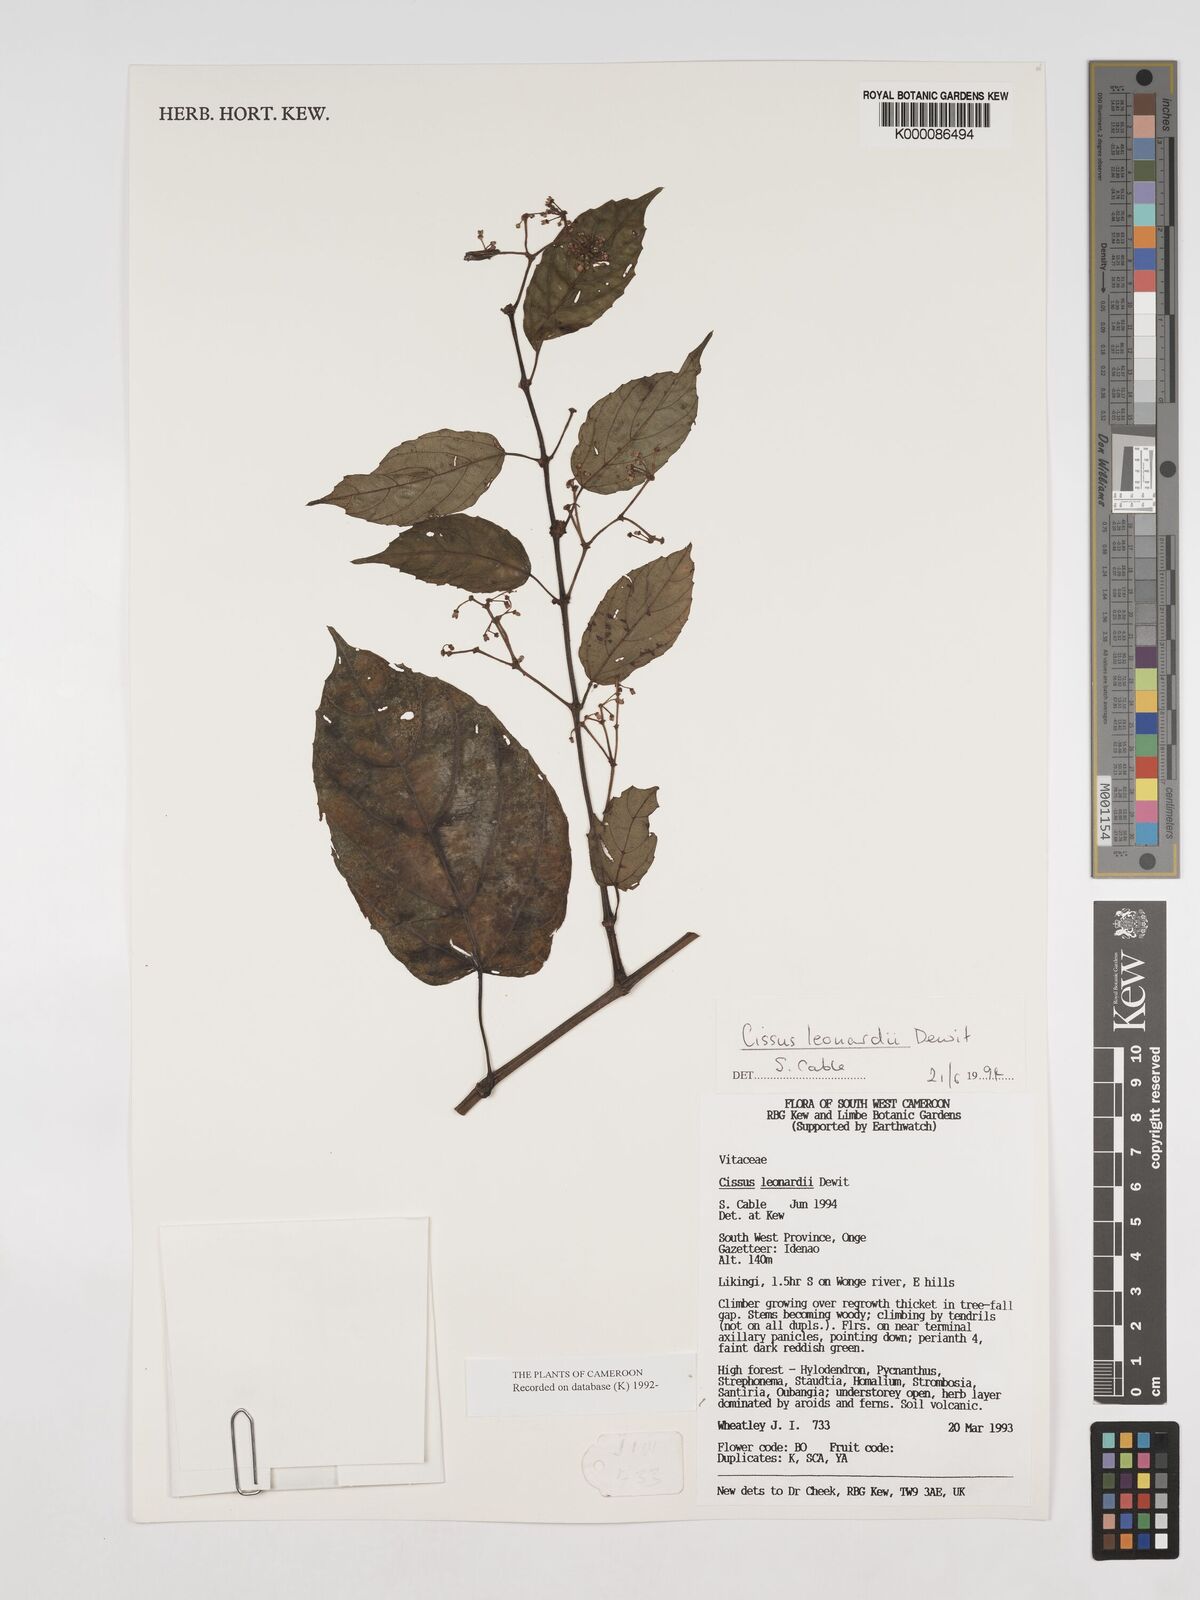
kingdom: Plantae
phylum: Tracheophyta
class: Magnoliopsida
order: Vitales
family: Vitaceae
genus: Cissus
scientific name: Cissus leonardii
